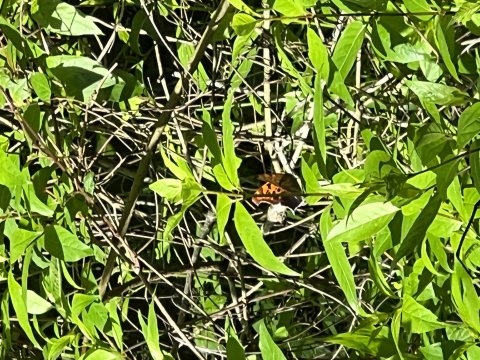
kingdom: Animalia
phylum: Arthropoda
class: Insecta
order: Lepidoptera
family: Nymphalidae
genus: Polygonia
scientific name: Polygonia interrogationis
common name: Question Mark
